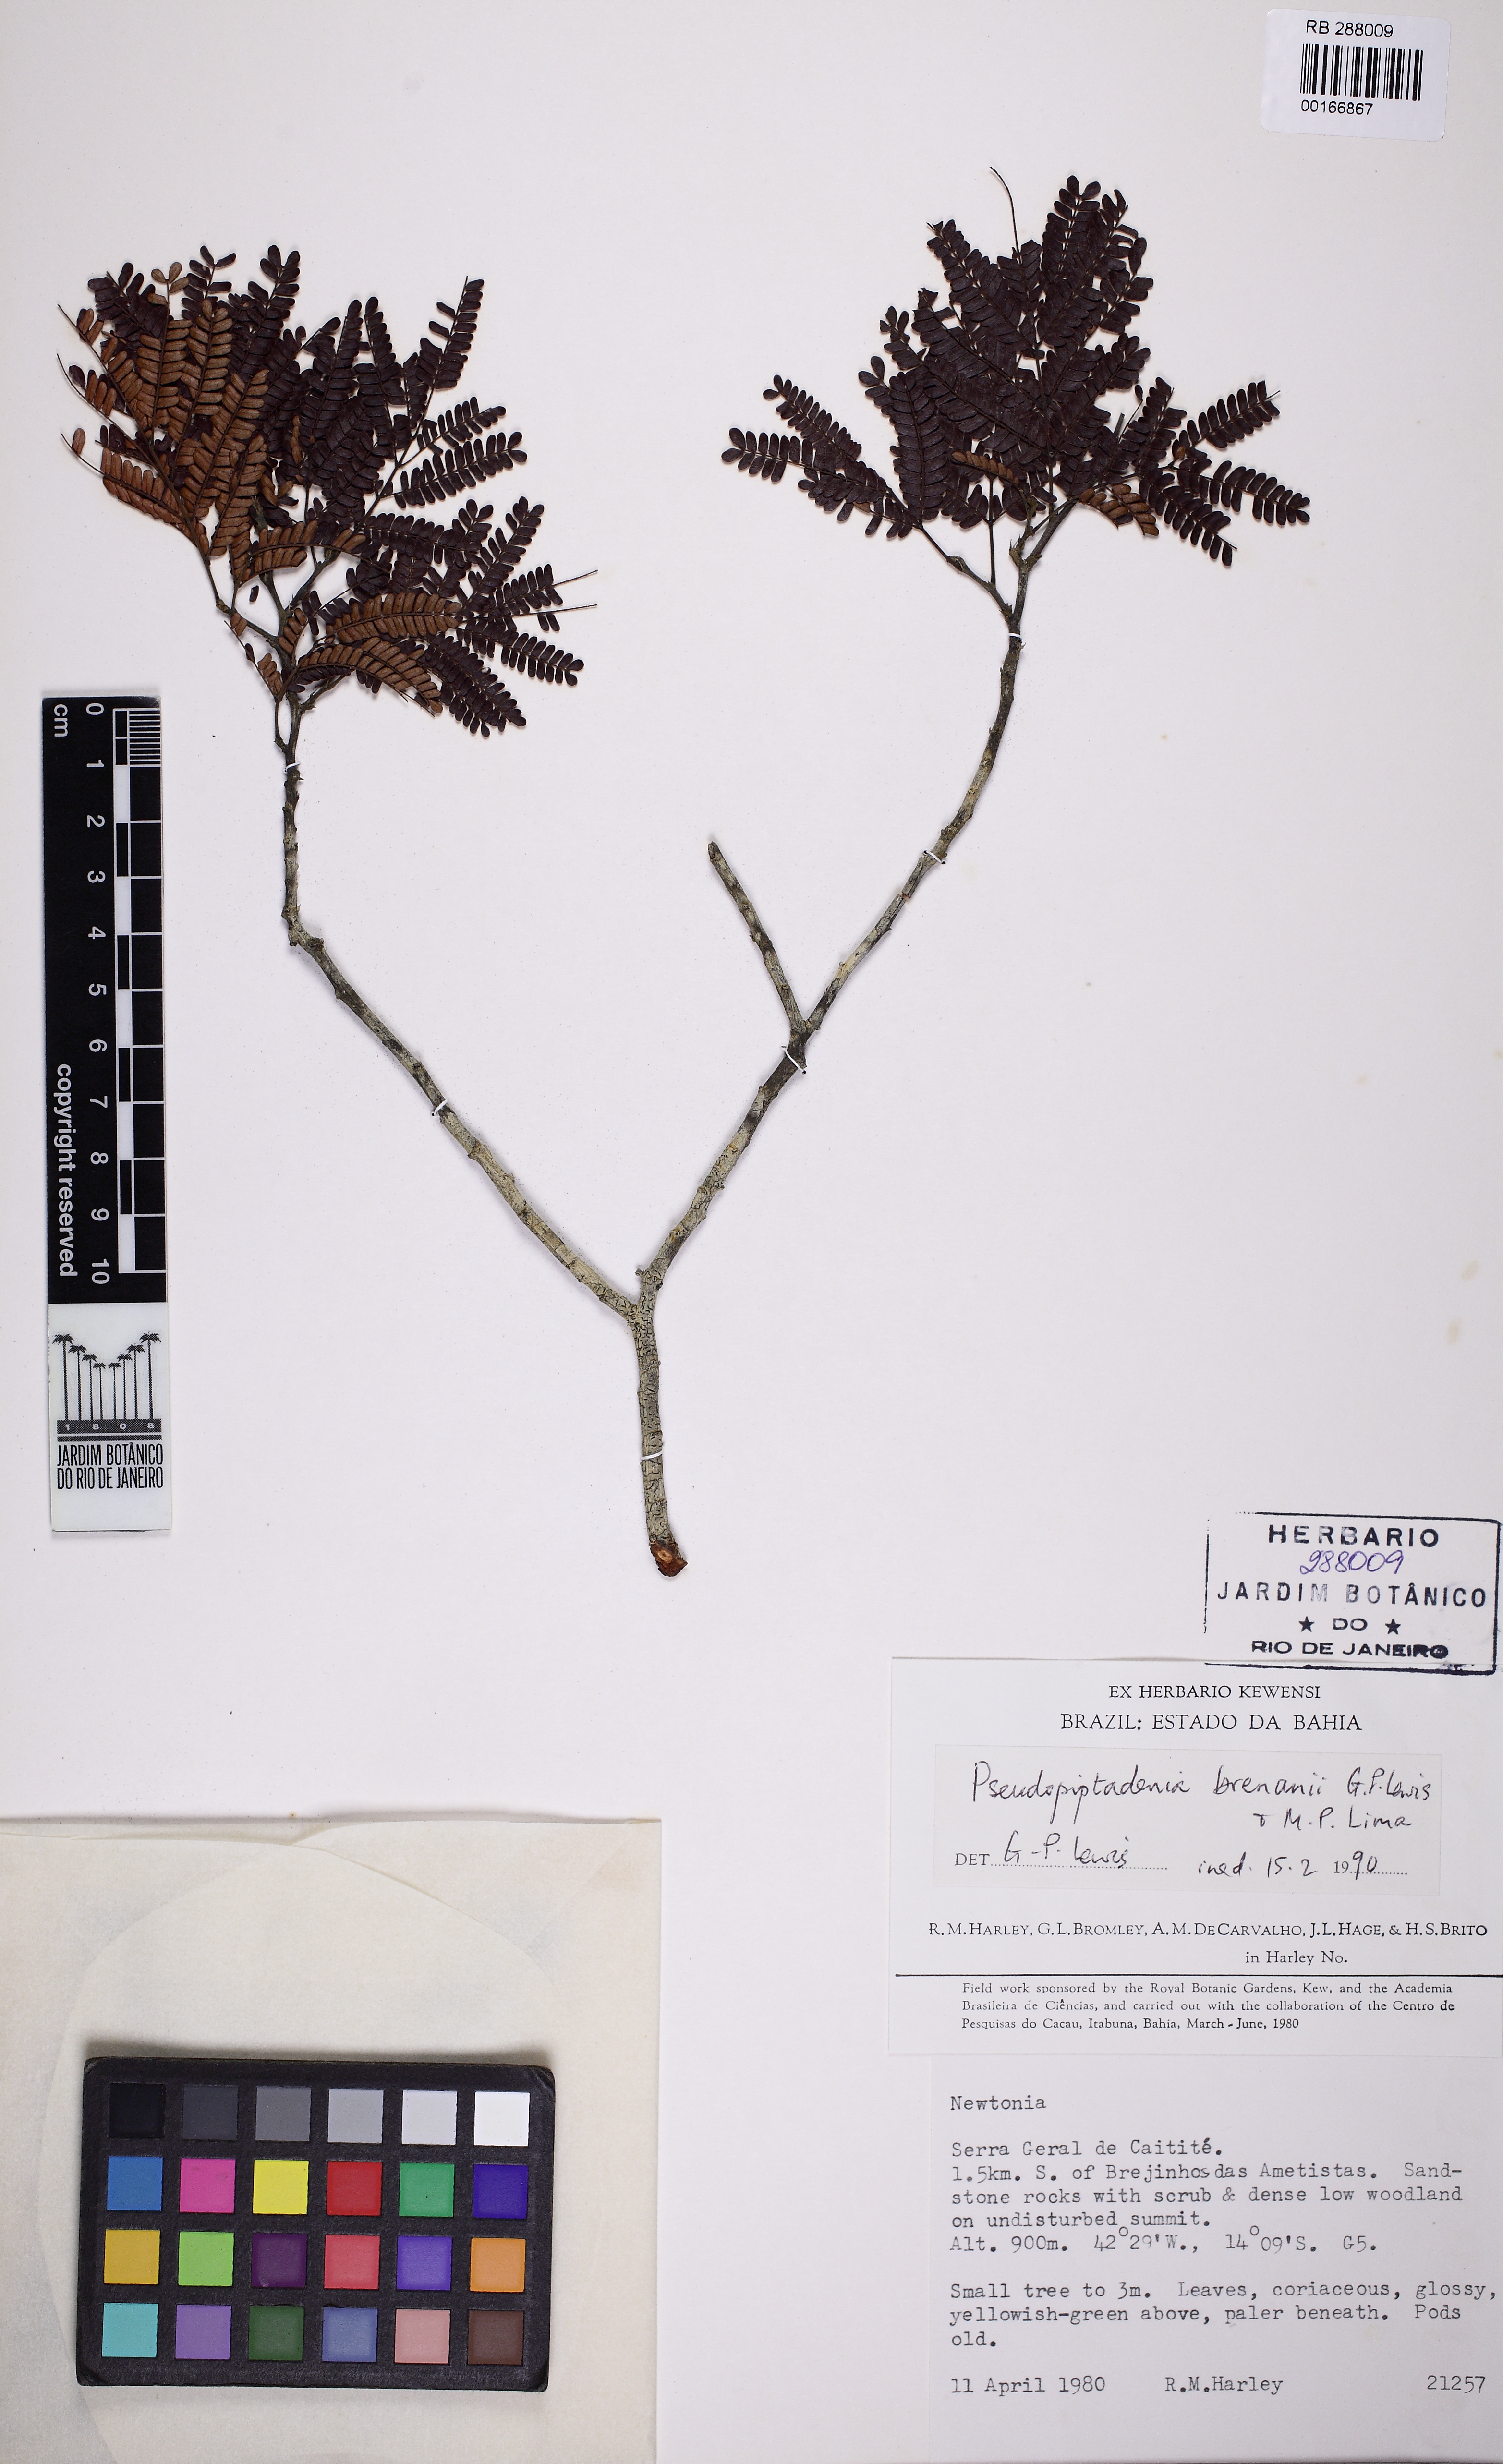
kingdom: Plantae
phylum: Tracheophyta
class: Magnoliopsida
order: Fabales
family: Fabaceae
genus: Pseudopiptadenia
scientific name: Pseudopiptadenia brenanii
